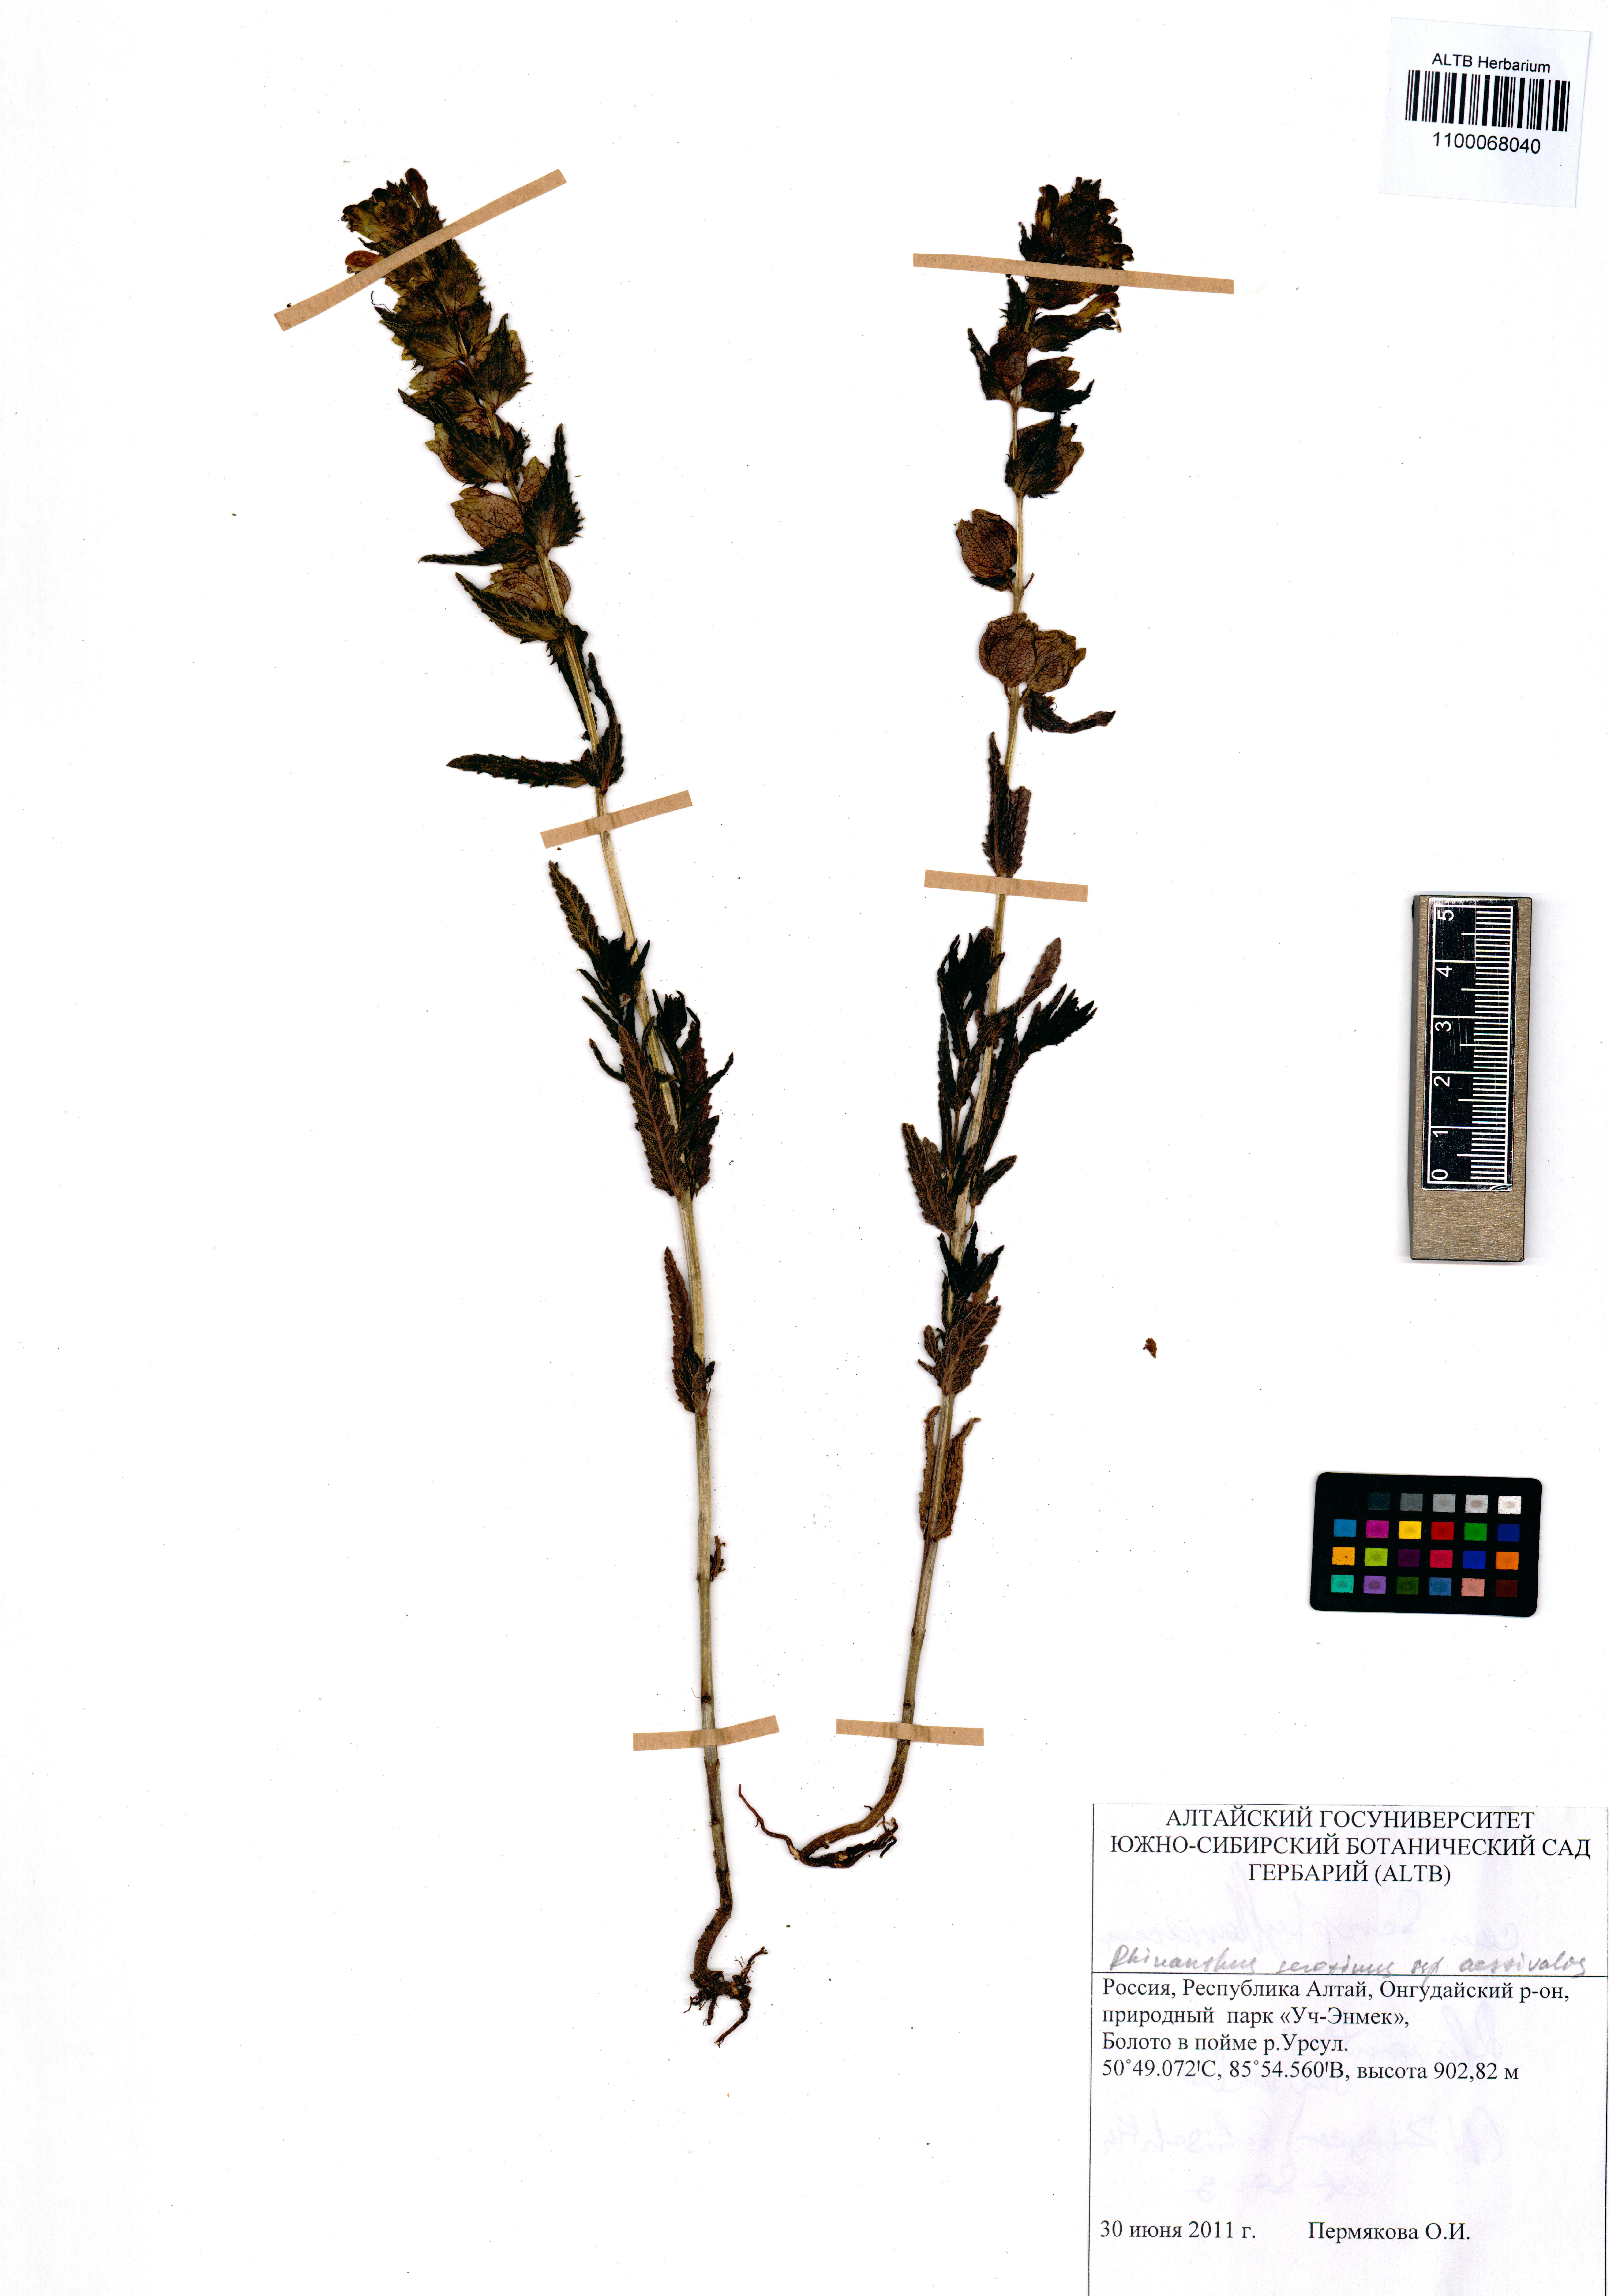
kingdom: Plantae
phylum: Tracheophyta
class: Magnoliopsida
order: Lamiales
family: Orobanchaceae
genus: Rhinanthus
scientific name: Rhinanthus serotinus
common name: Late-flowering yellow rattle
